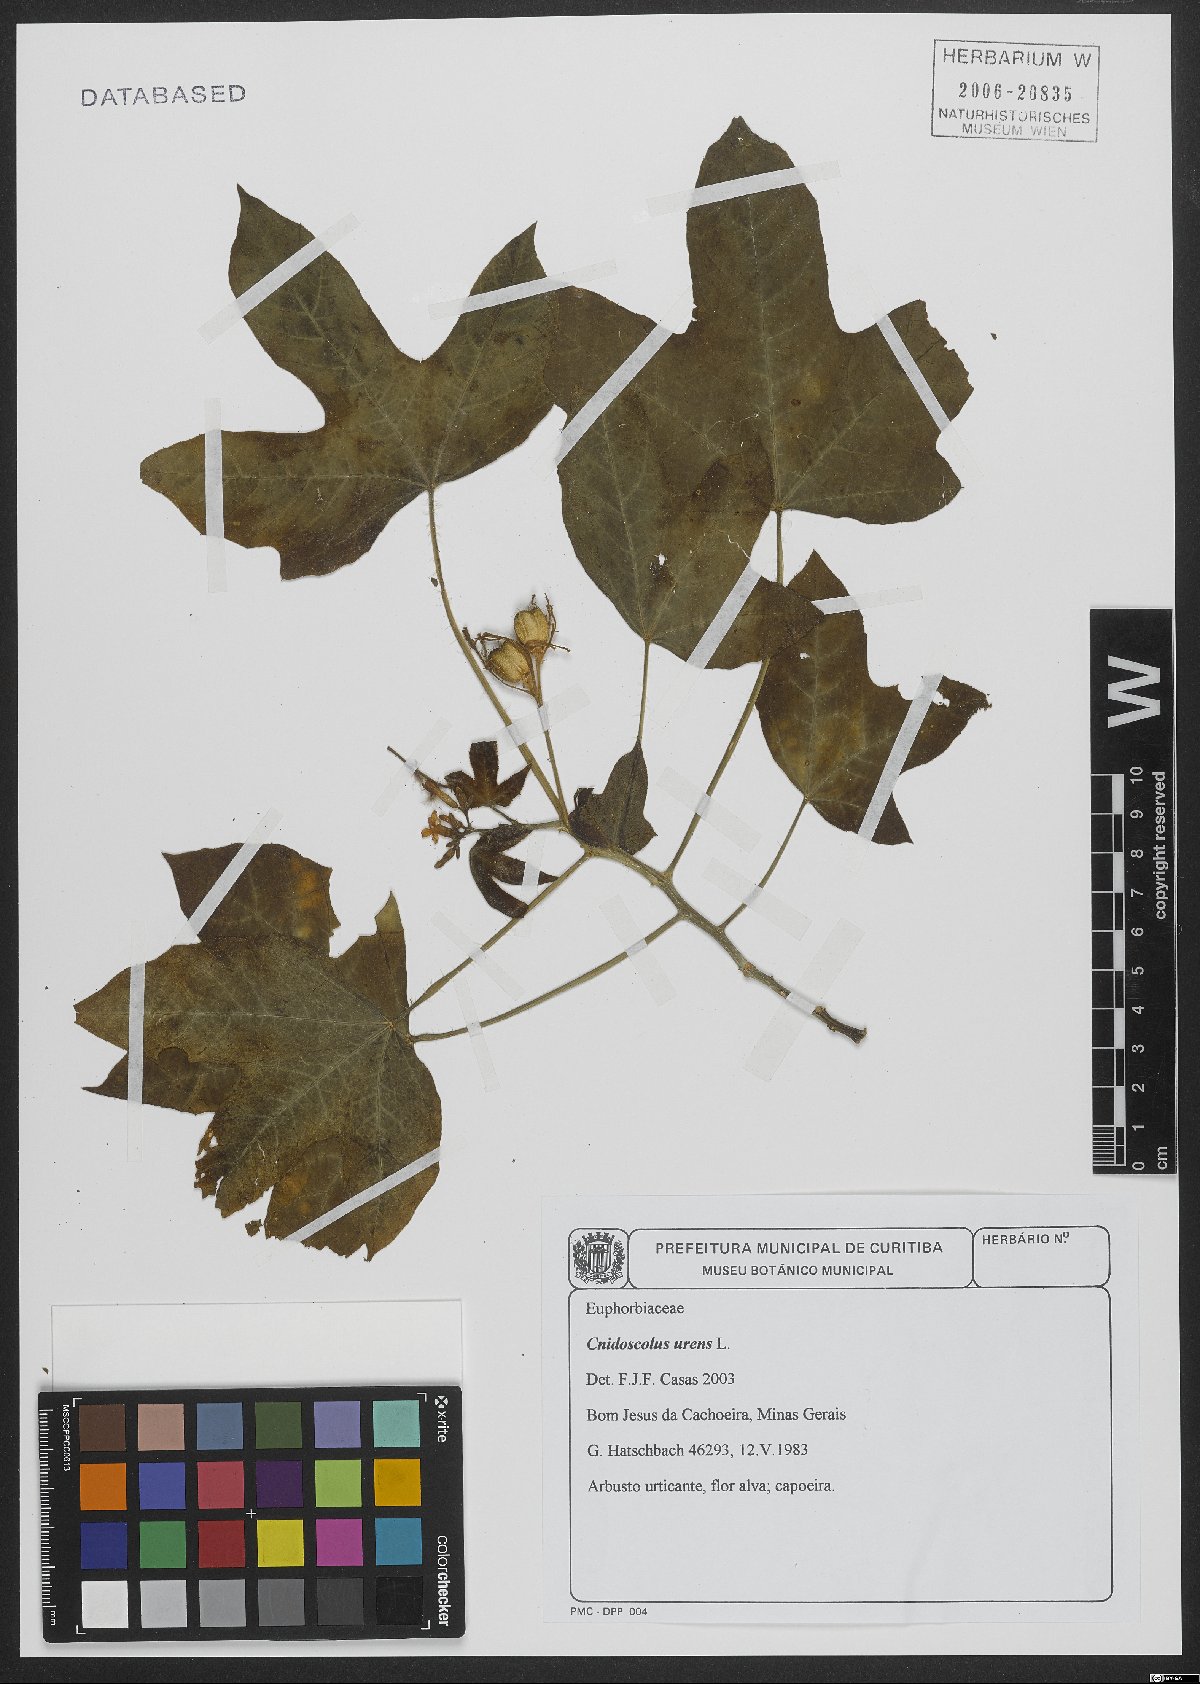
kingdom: Plantae
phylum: Tracheophyta
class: Magnoliopsida
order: Malpighiales
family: Euphorbiaceae
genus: Cnidoscolus
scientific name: Cnidoscolus urens
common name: Bull-nettle
